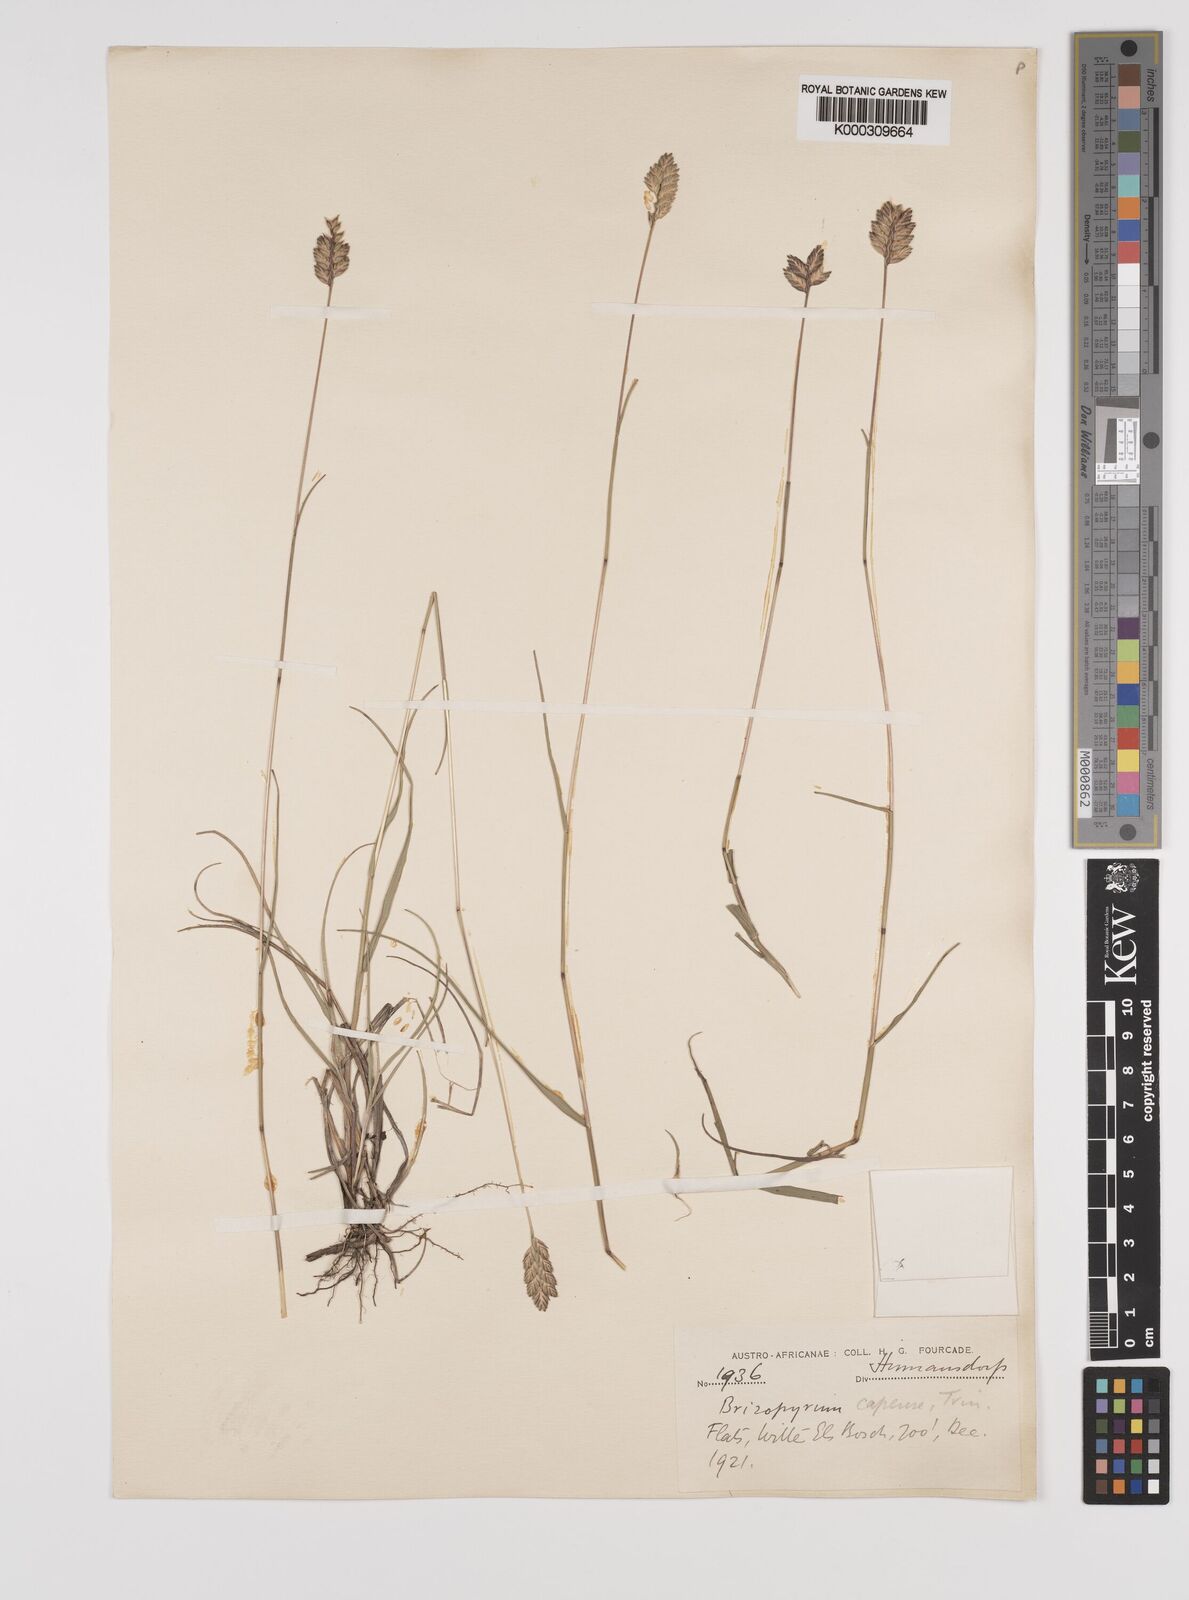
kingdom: Plantae
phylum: Tracheophyta
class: Liliopsida
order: Poales
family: Poaceae
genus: Tribolium
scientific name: Tribolium uniolae
